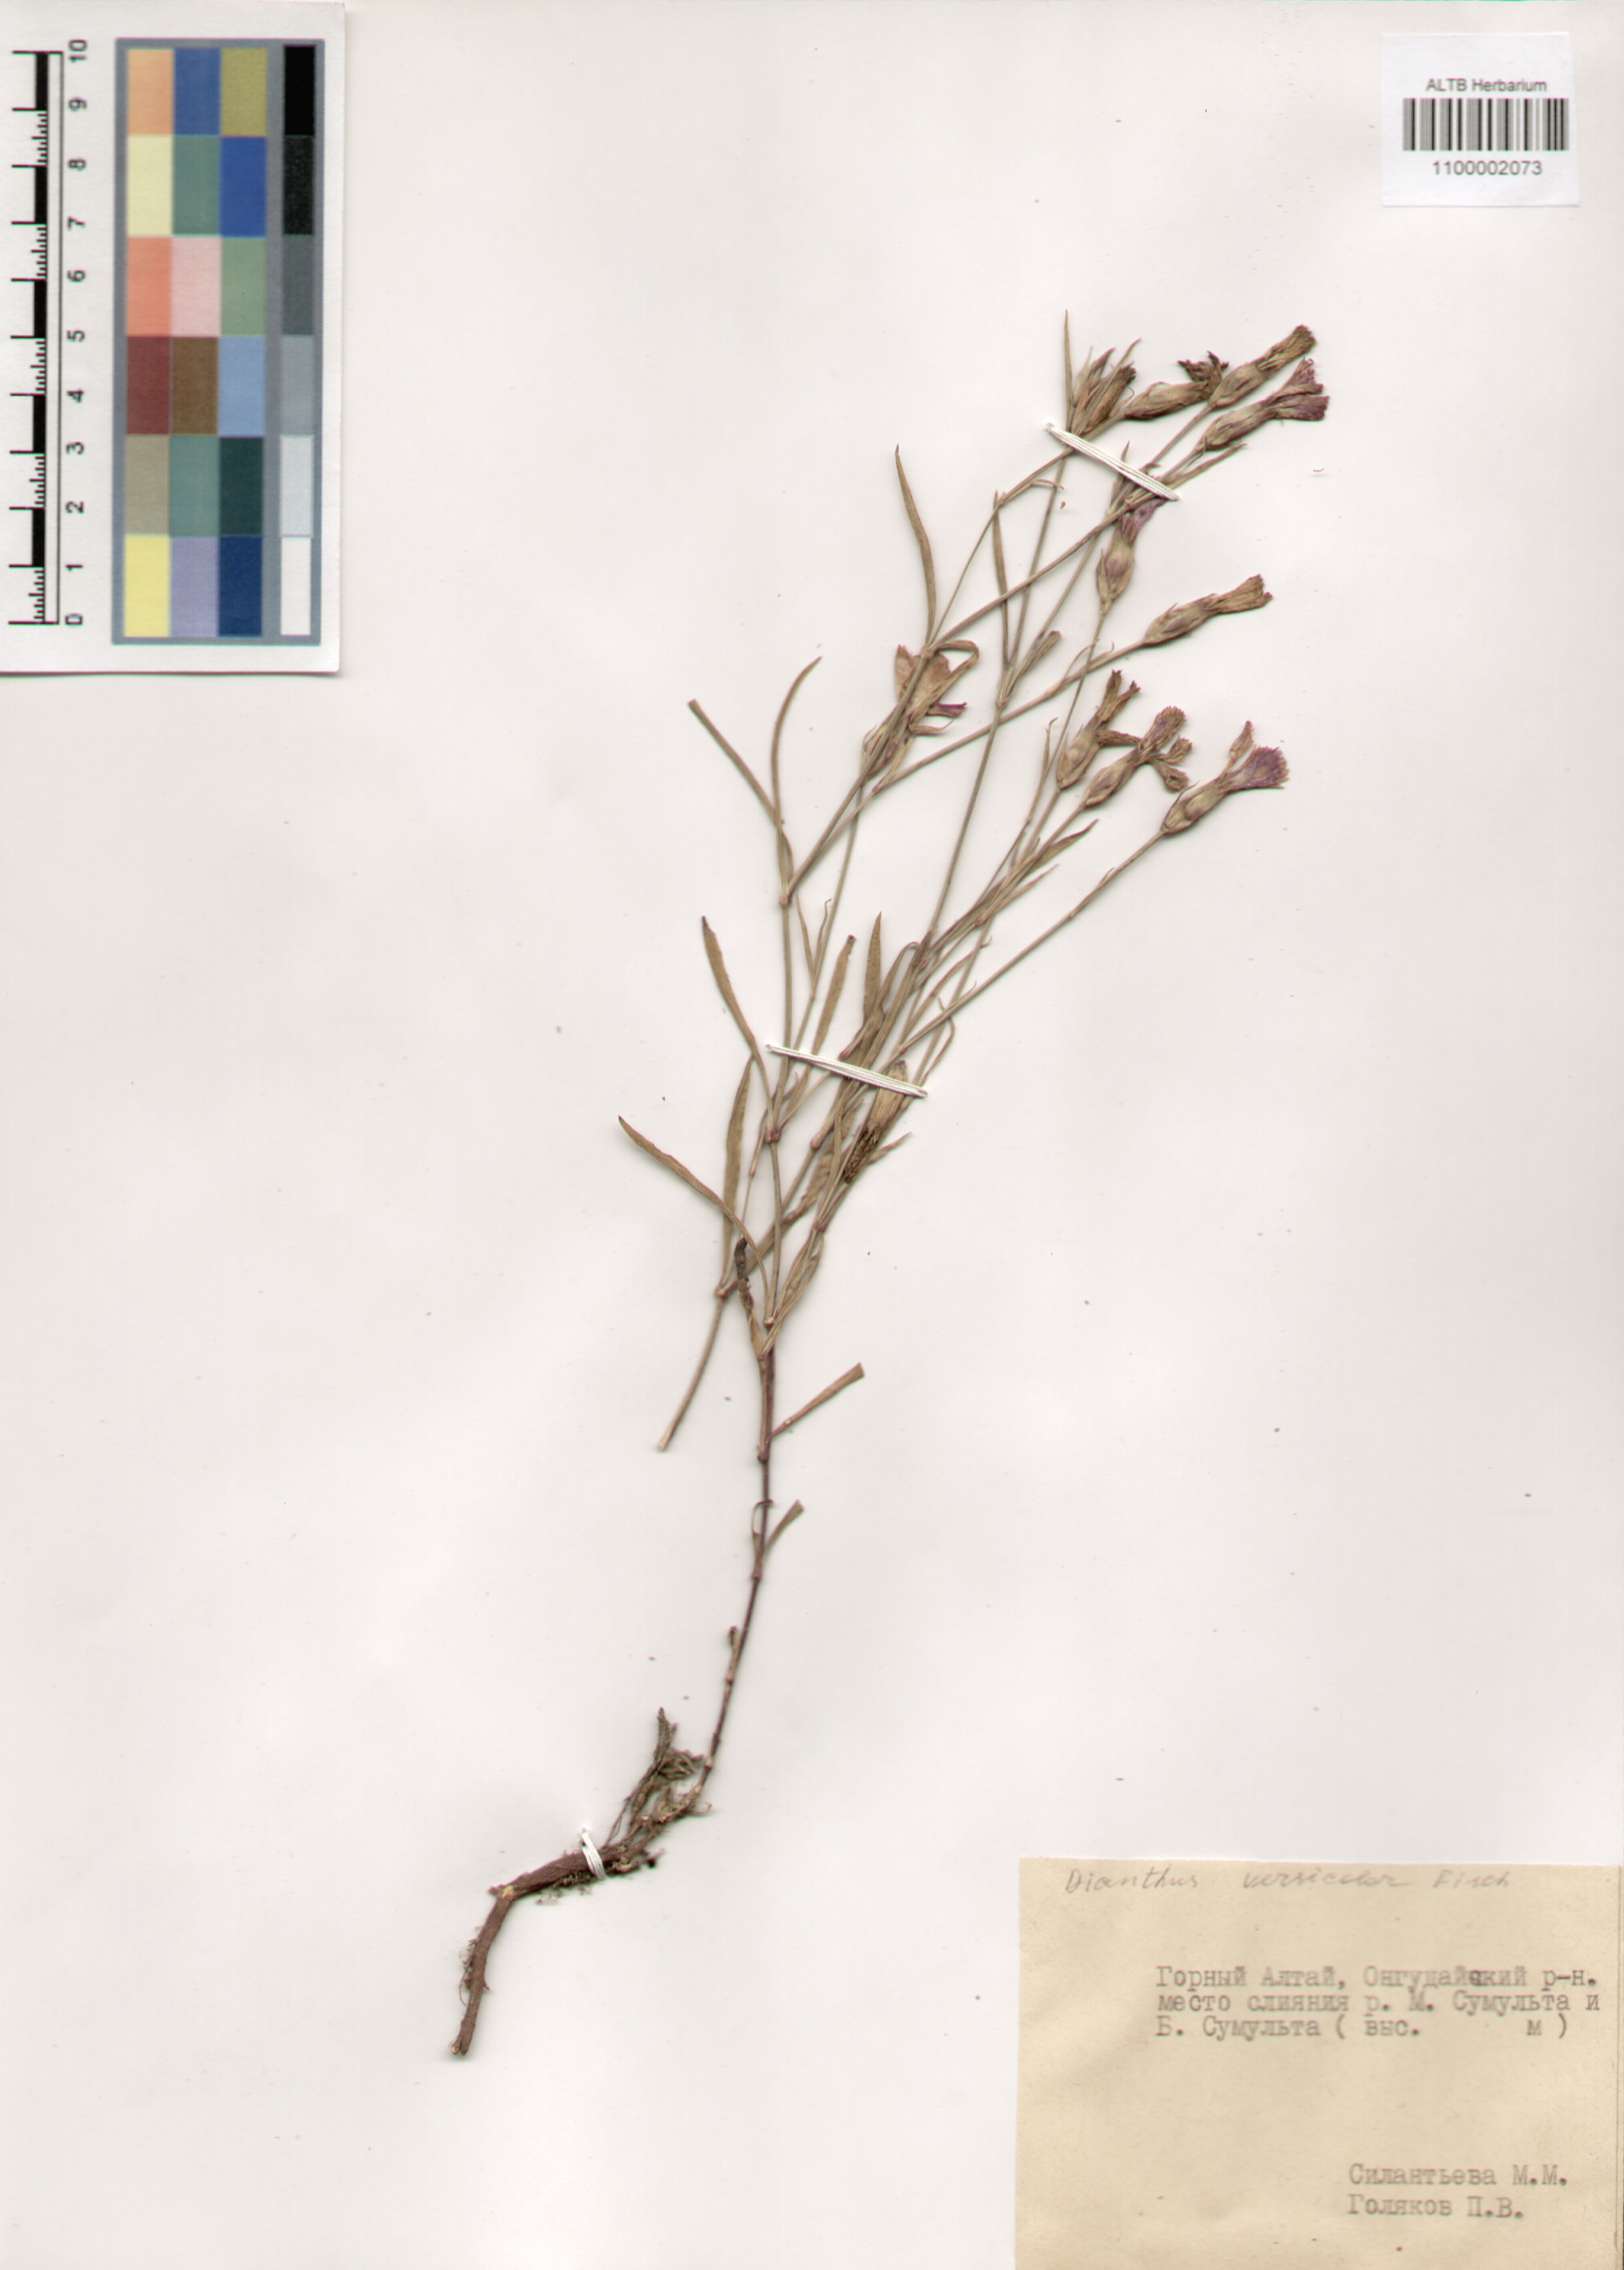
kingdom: Plantae
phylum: Tracheophyta
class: Magnoliopsida
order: Caryophyllales
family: Caryophyllaceae
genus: Dianthus
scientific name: Dianthus chinensis
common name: Rainbow pink
